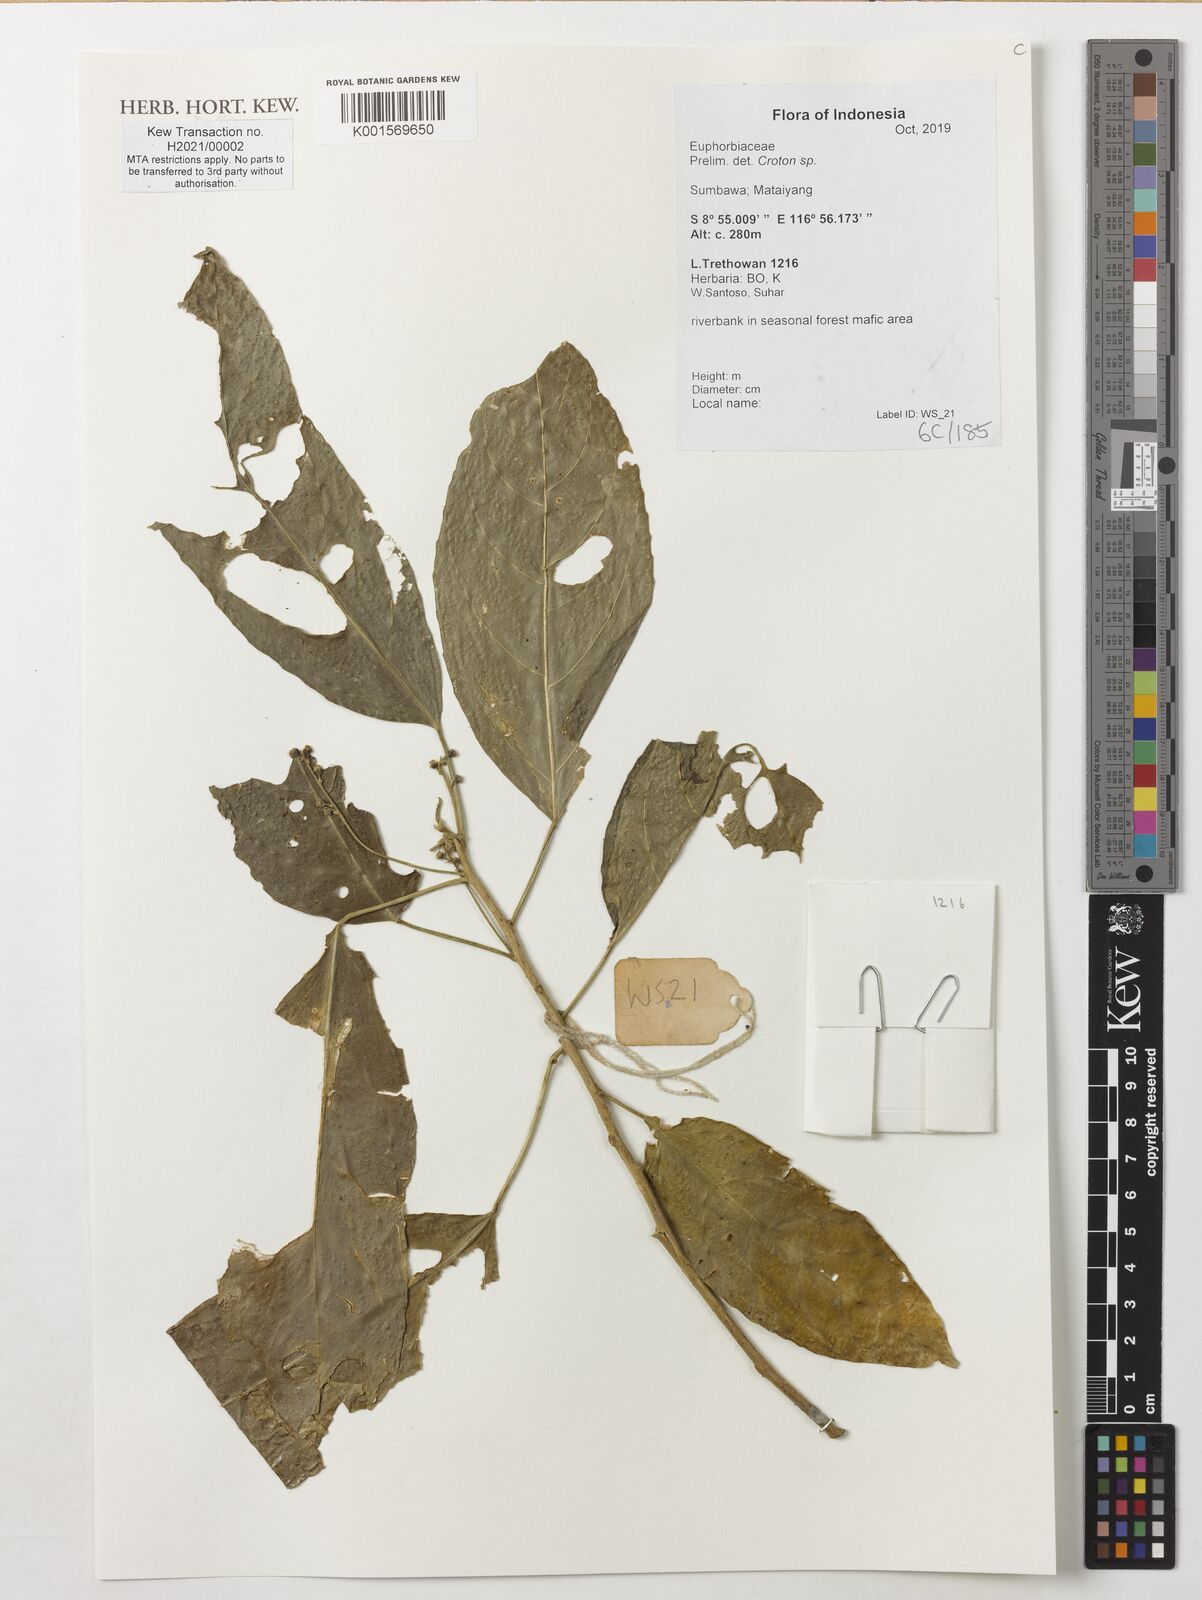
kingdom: Plantae
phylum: Tracheophyta
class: Magnoliopsida
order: Malpighiales
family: Euphorbiaceae
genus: Croton
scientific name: Croton
